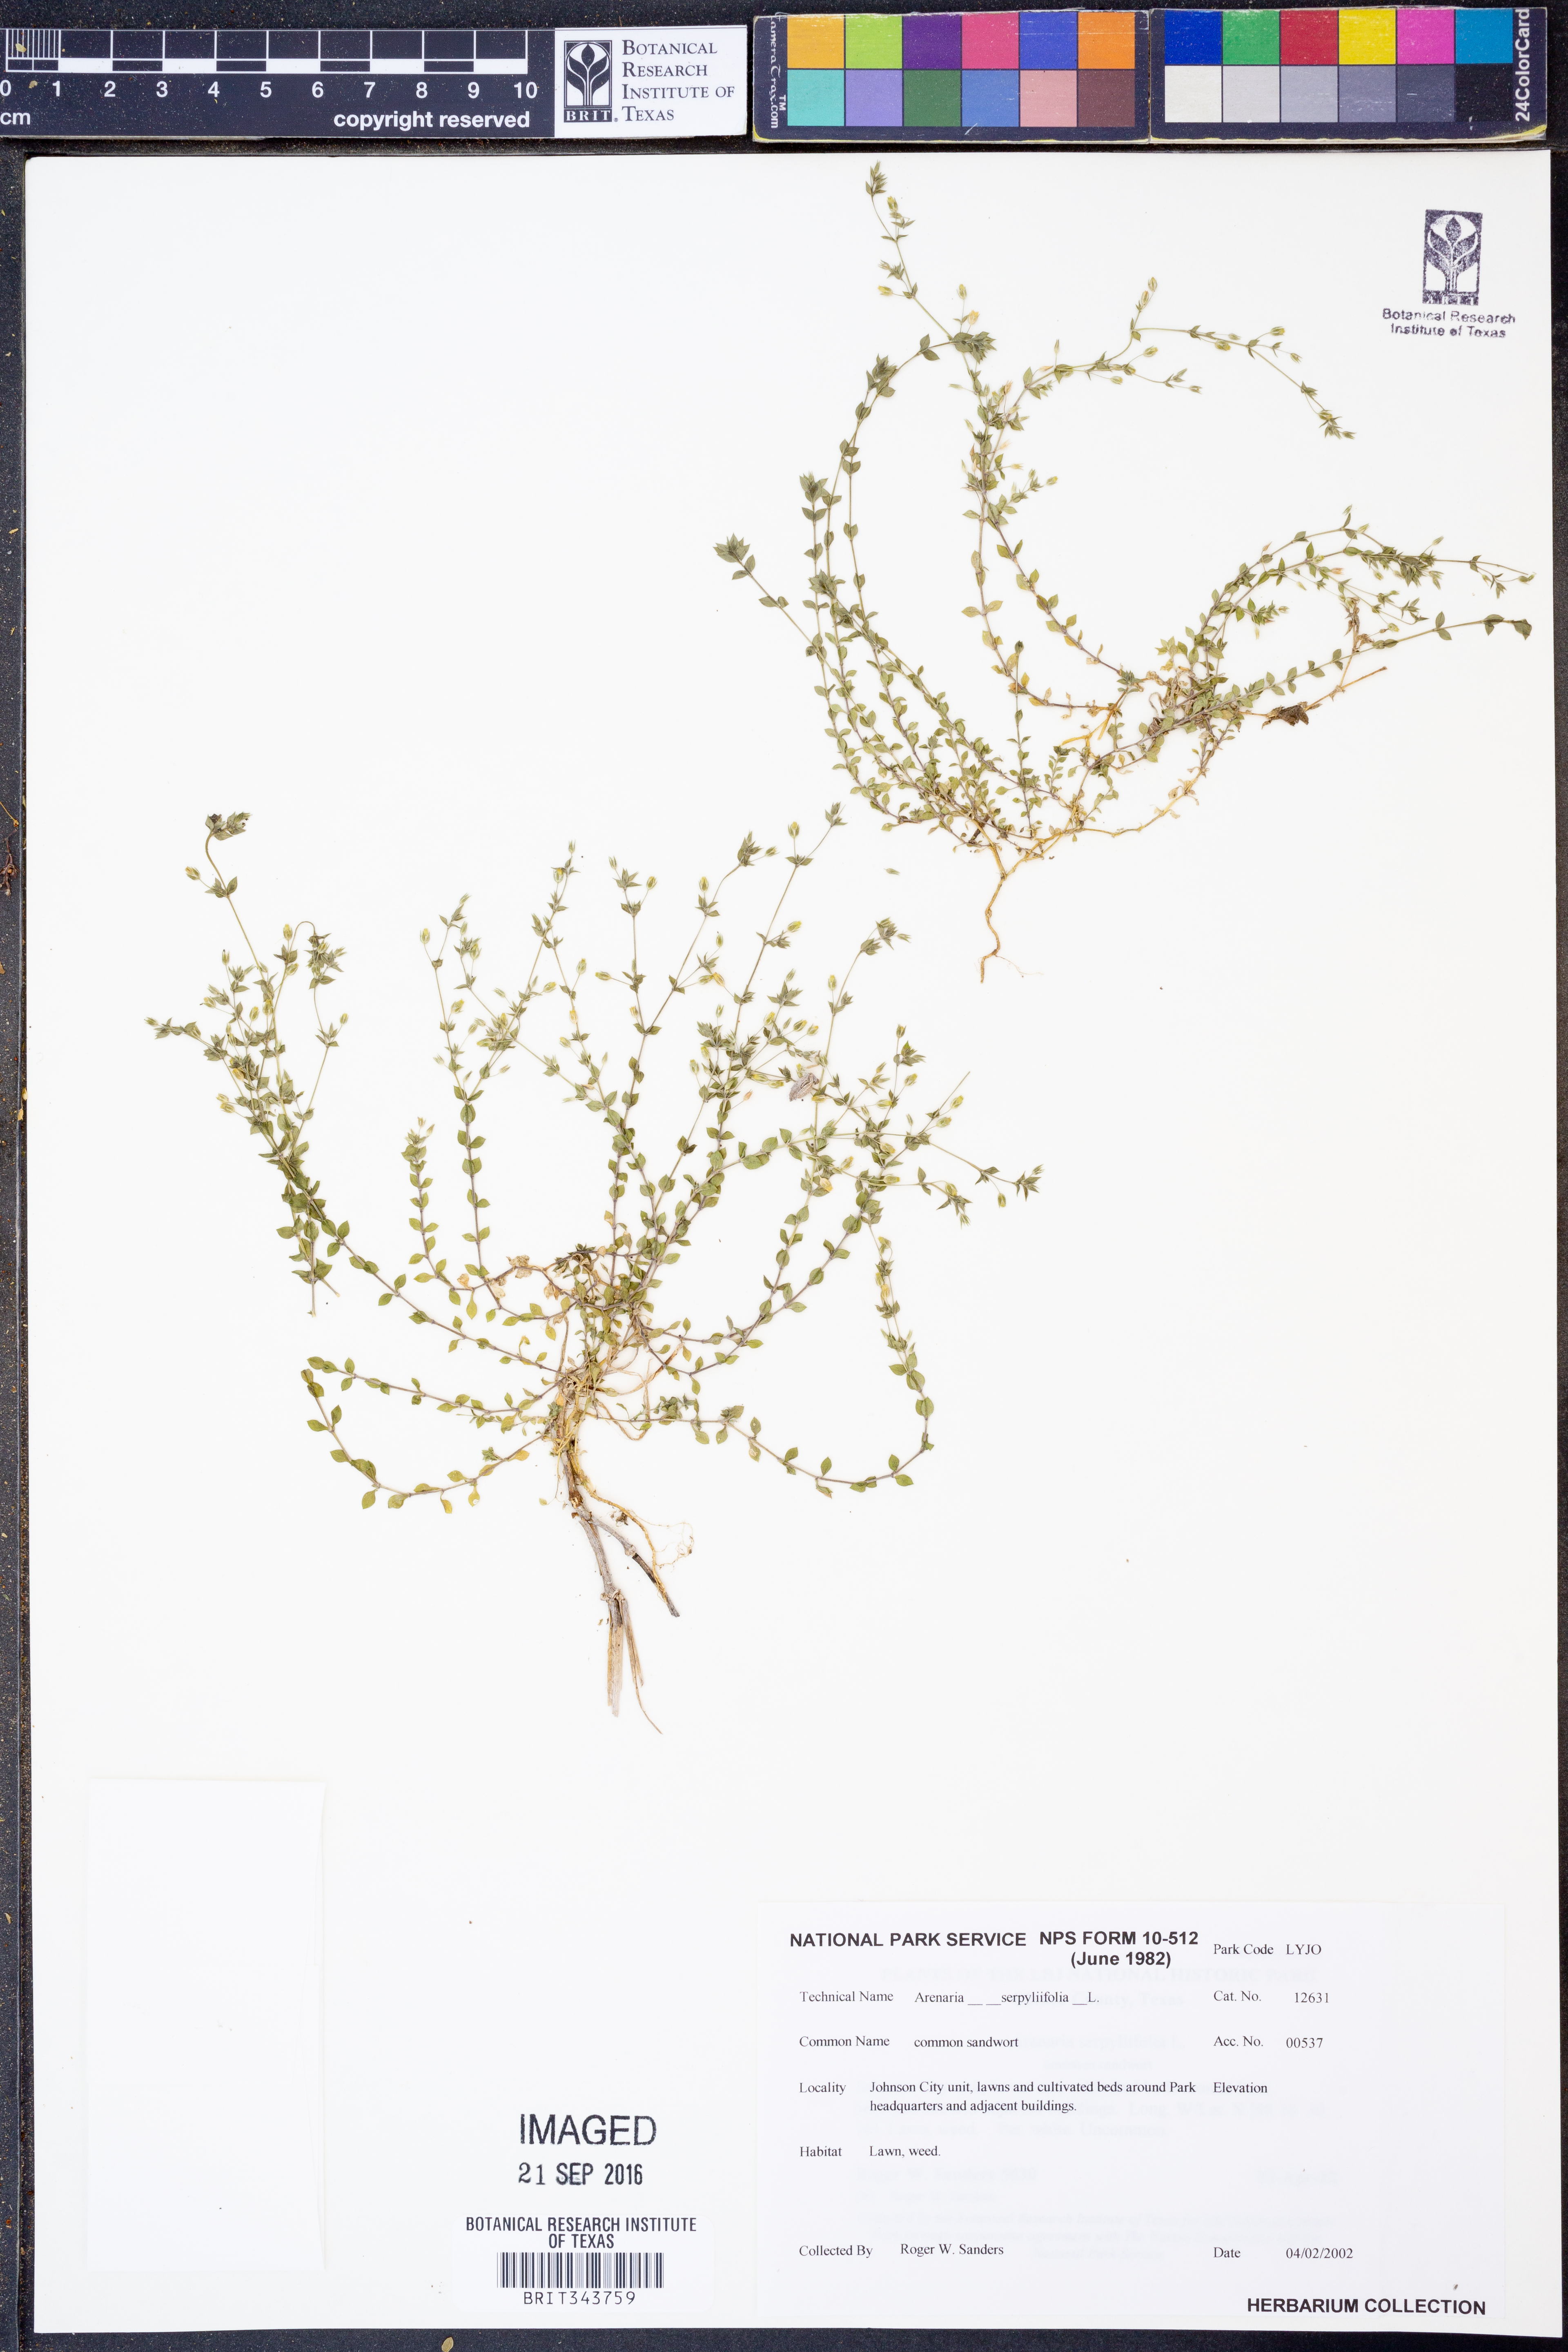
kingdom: Plantae
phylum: Tracheophyta
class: Magnoliopsida
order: Caryophyllales
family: Caryophyllaceae
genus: Arenaria
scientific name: Arenaria serpyllifolia
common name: Thyme-leaved sandwort
